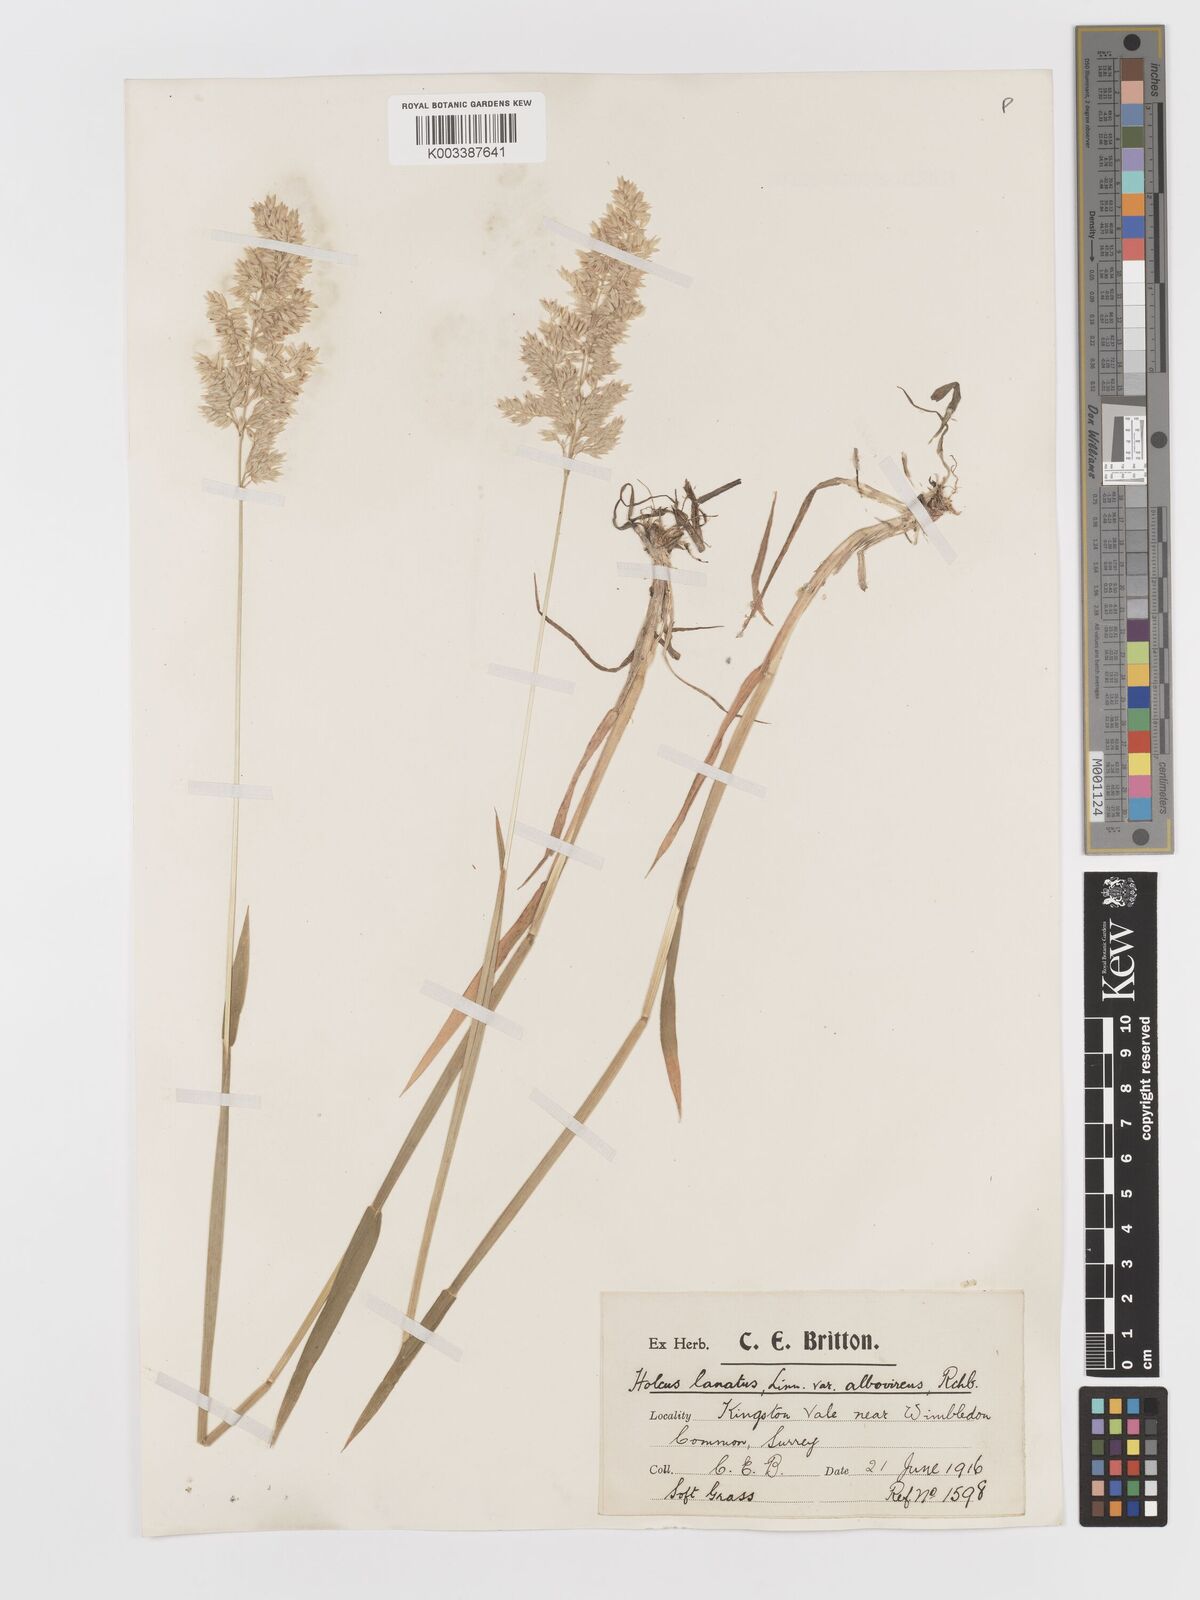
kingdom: Plantae
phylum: Tracheophyta
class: Liliopsida
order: Poales
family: Poaceae
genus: Holcus
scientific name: Holcus lanatus
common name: Yorkshire-fog
